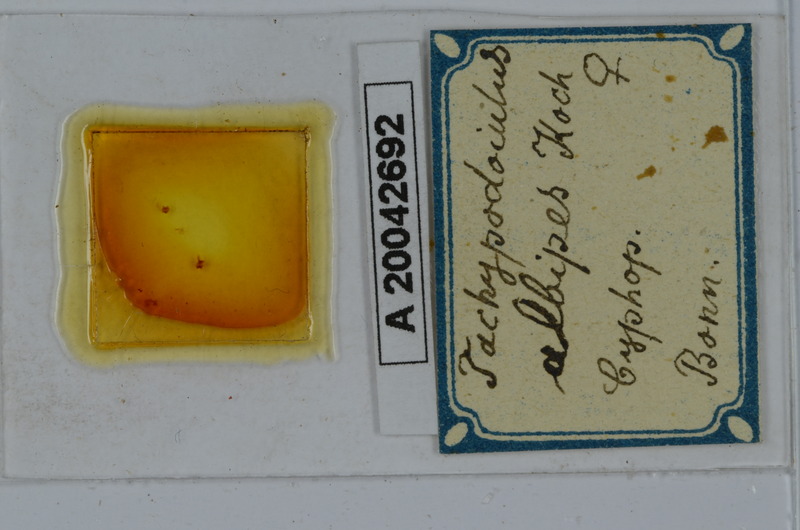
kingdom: Animalia
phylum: Arthropoda
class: Diplopoda
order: Julida
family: Julidae
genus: Tachypodoiulus
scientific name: Tachypodoiulus niger
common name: White-legged snake millipede
